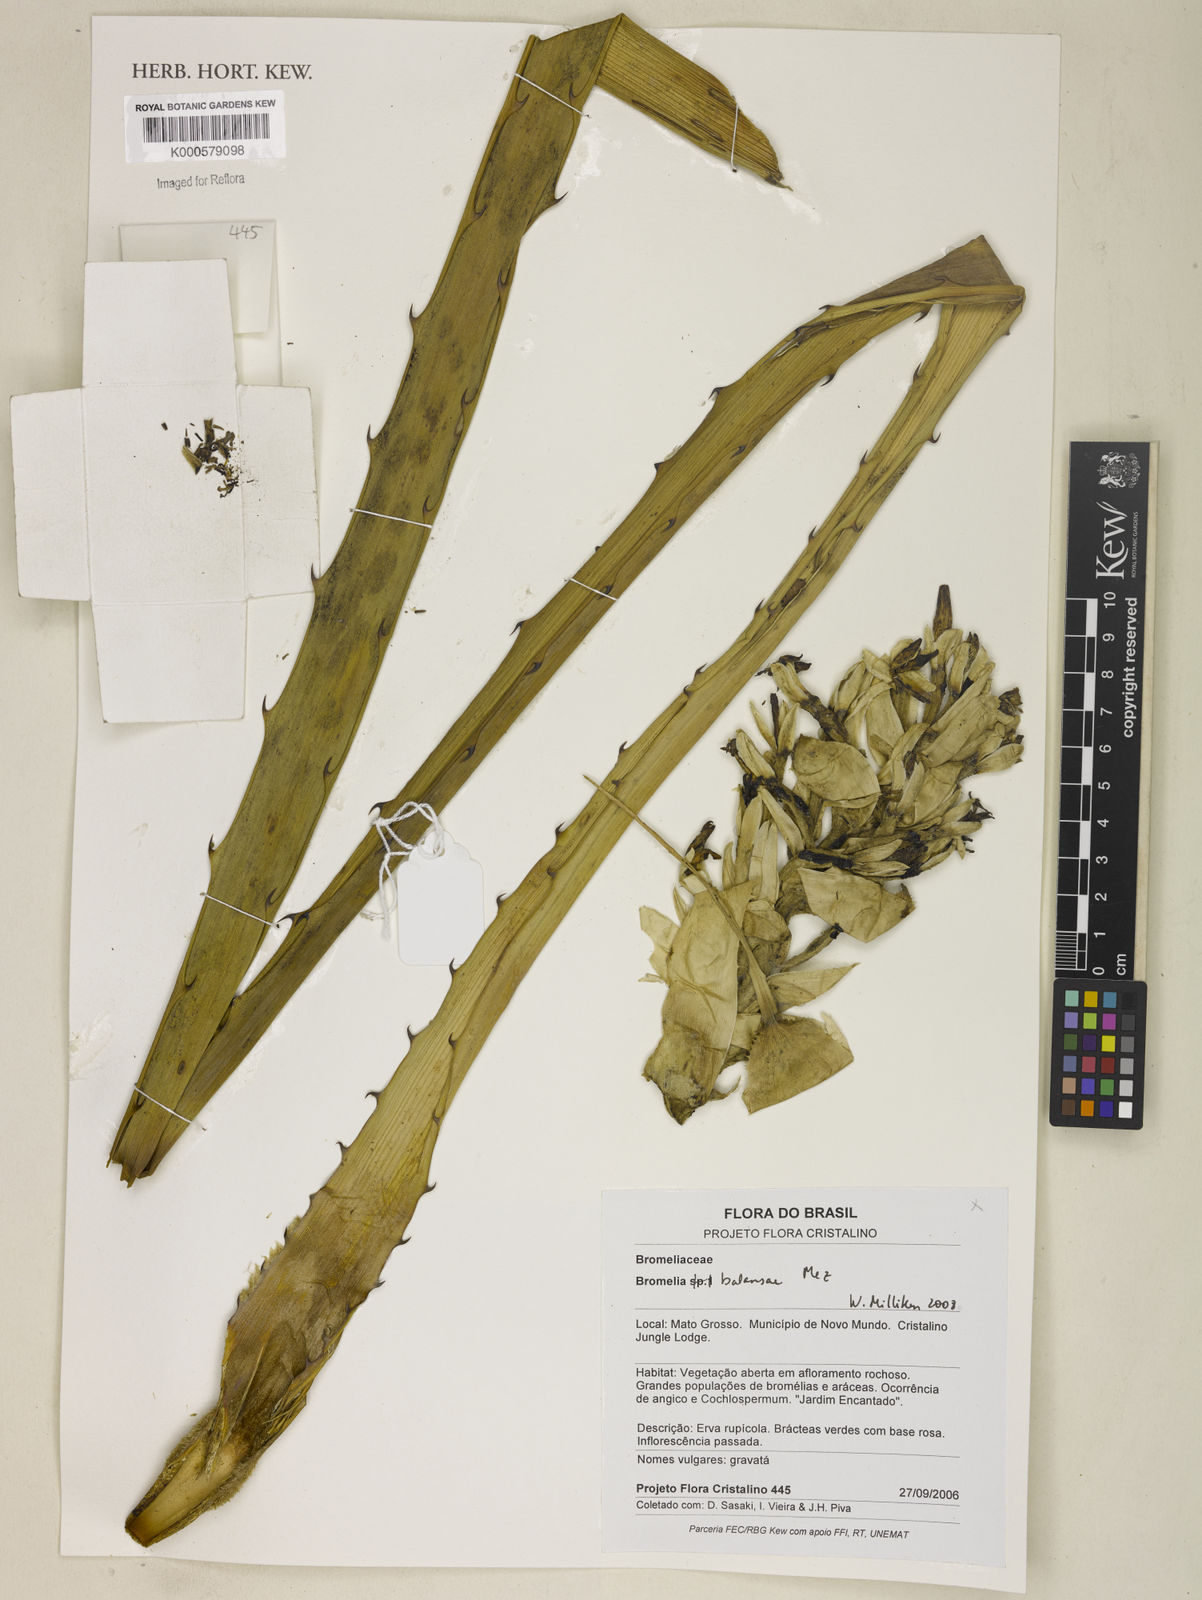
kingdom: Plantae
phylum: Tracheophyta
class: Liliopsida
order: Poales
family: Bromeliaceae
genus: Bromelia
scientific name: Bromelia balansae
